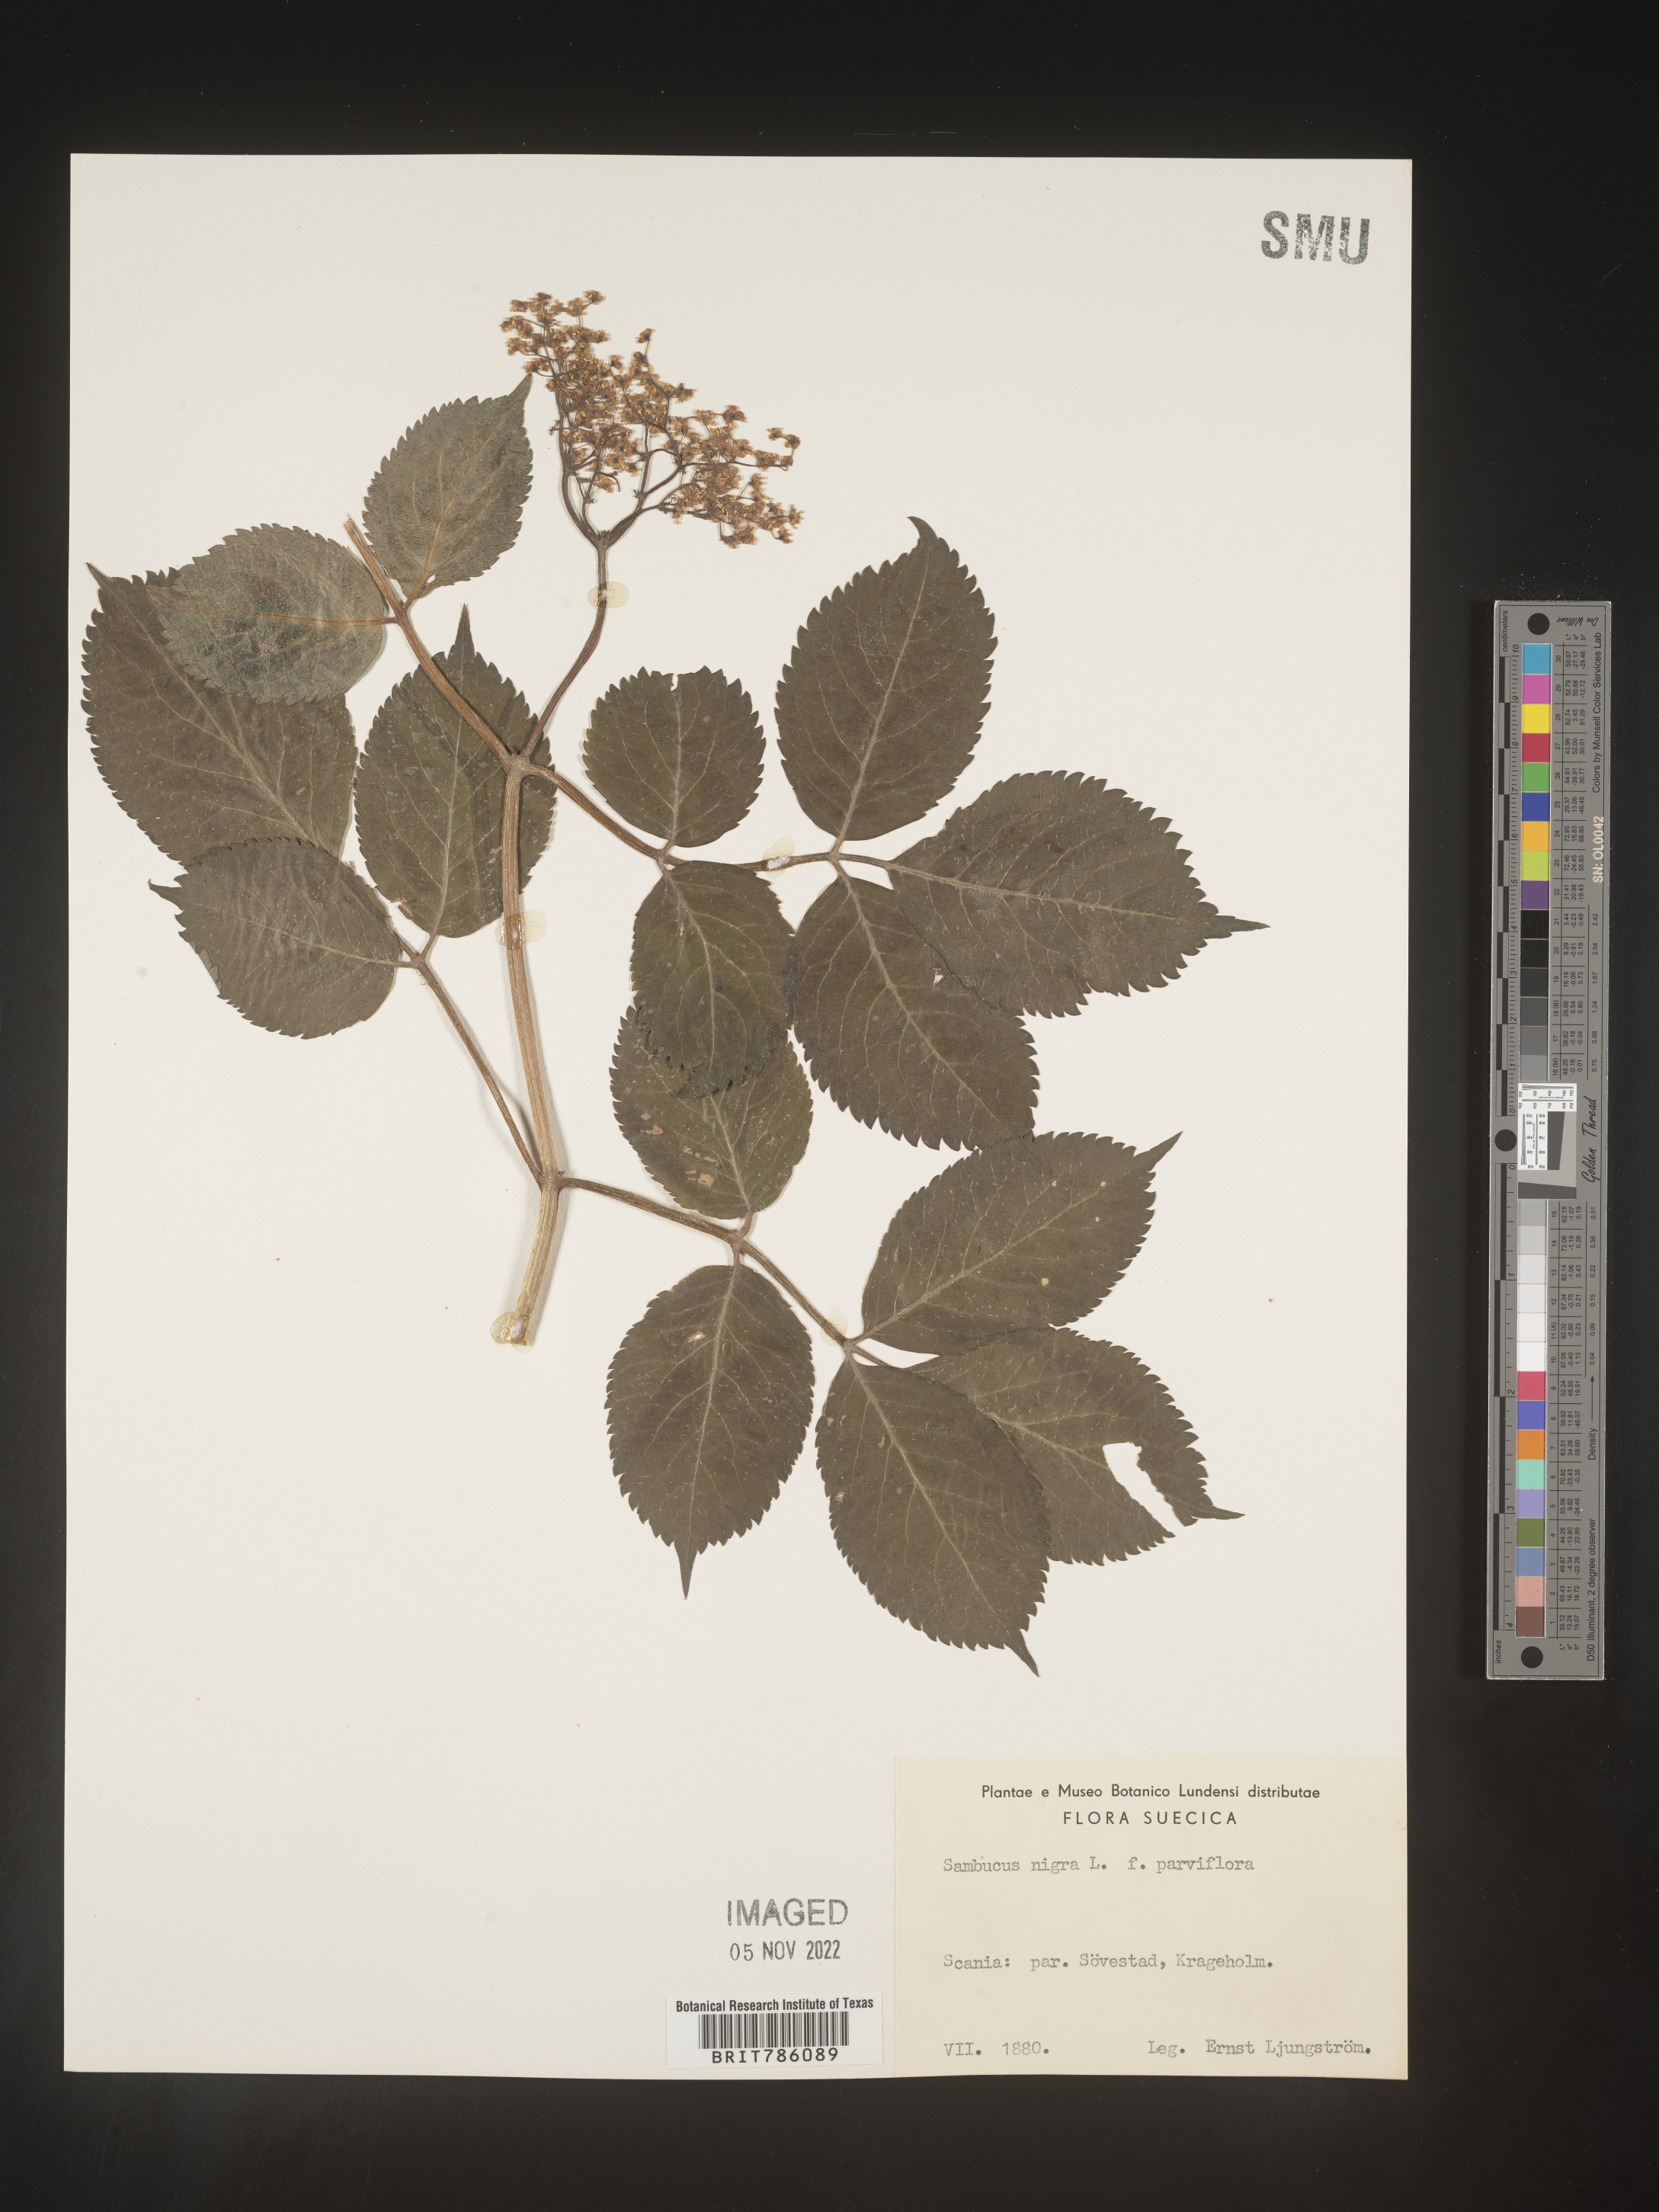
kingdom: Plantae
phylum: Tracheophyta
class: Magnoliopsida
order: Dipsacales
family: Viburnaceae
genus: Sambucus
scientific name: Sambucus
